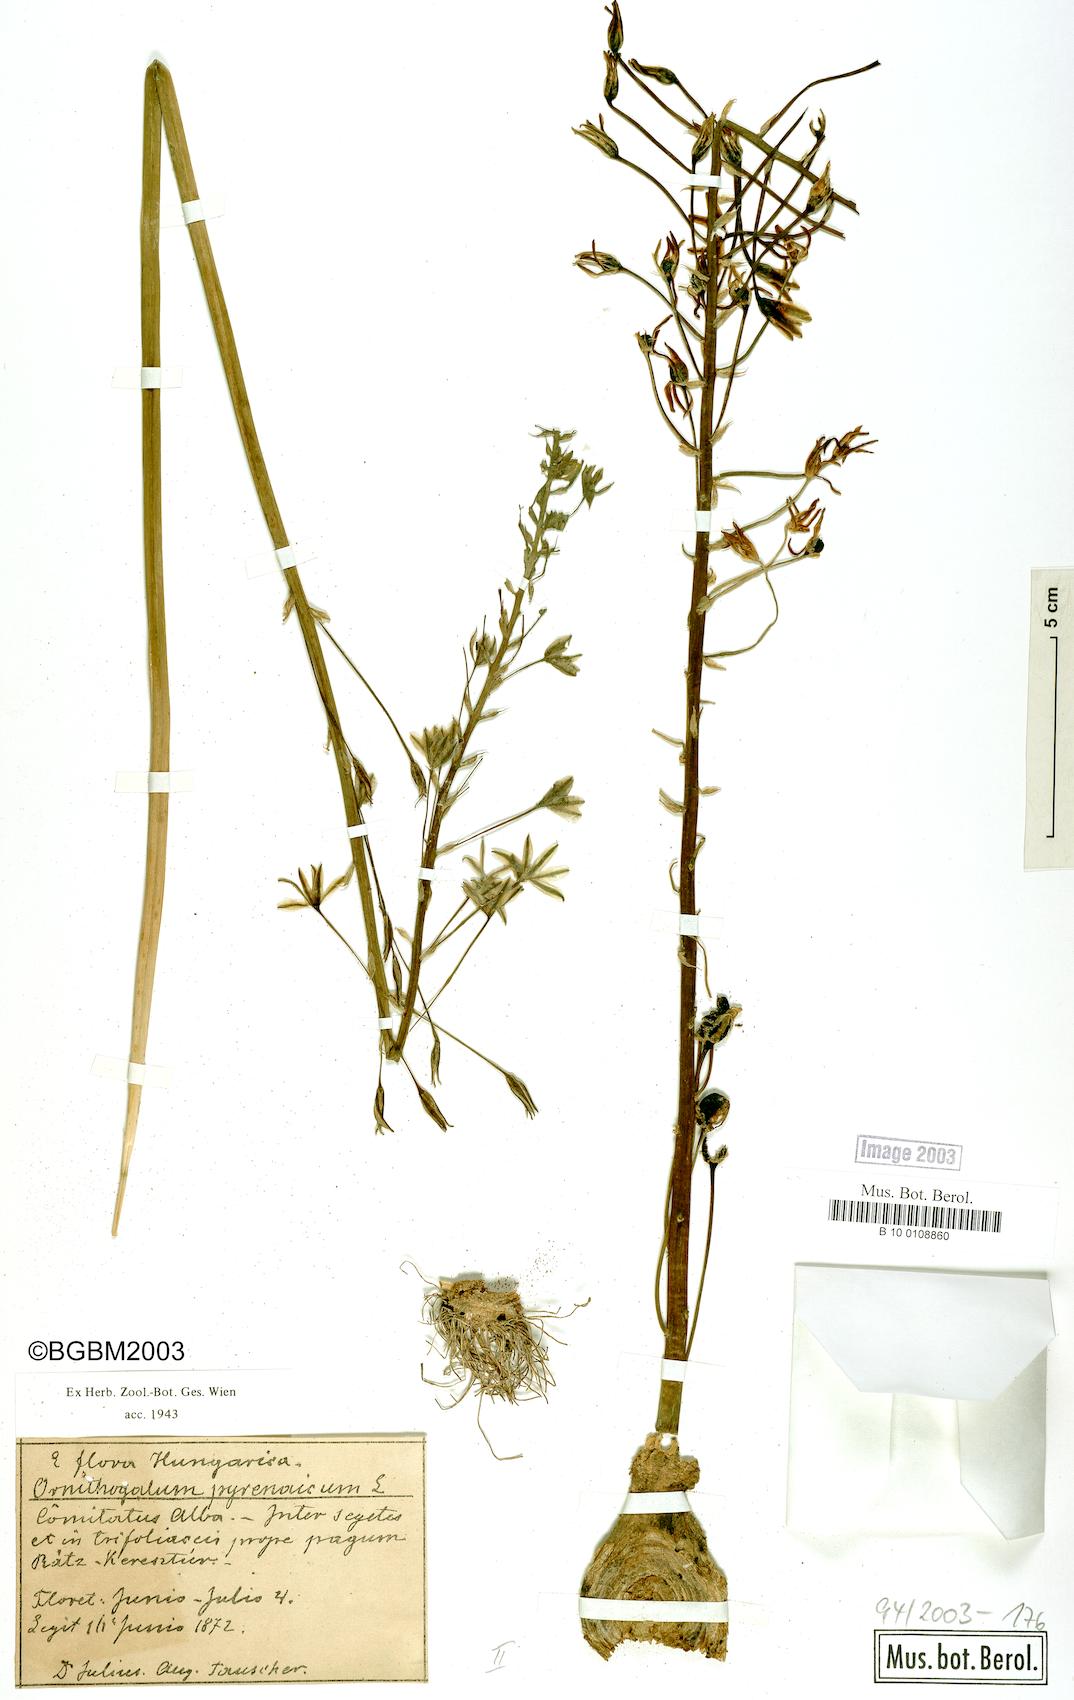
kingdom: Plantae
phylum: Tracheophyta
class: Liliopsida
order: Asparagales
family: Asparagaceae
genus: Ornithogalum
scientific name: Ornithogalum pyrenaicum
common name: Spiked star-of-bethlehem
